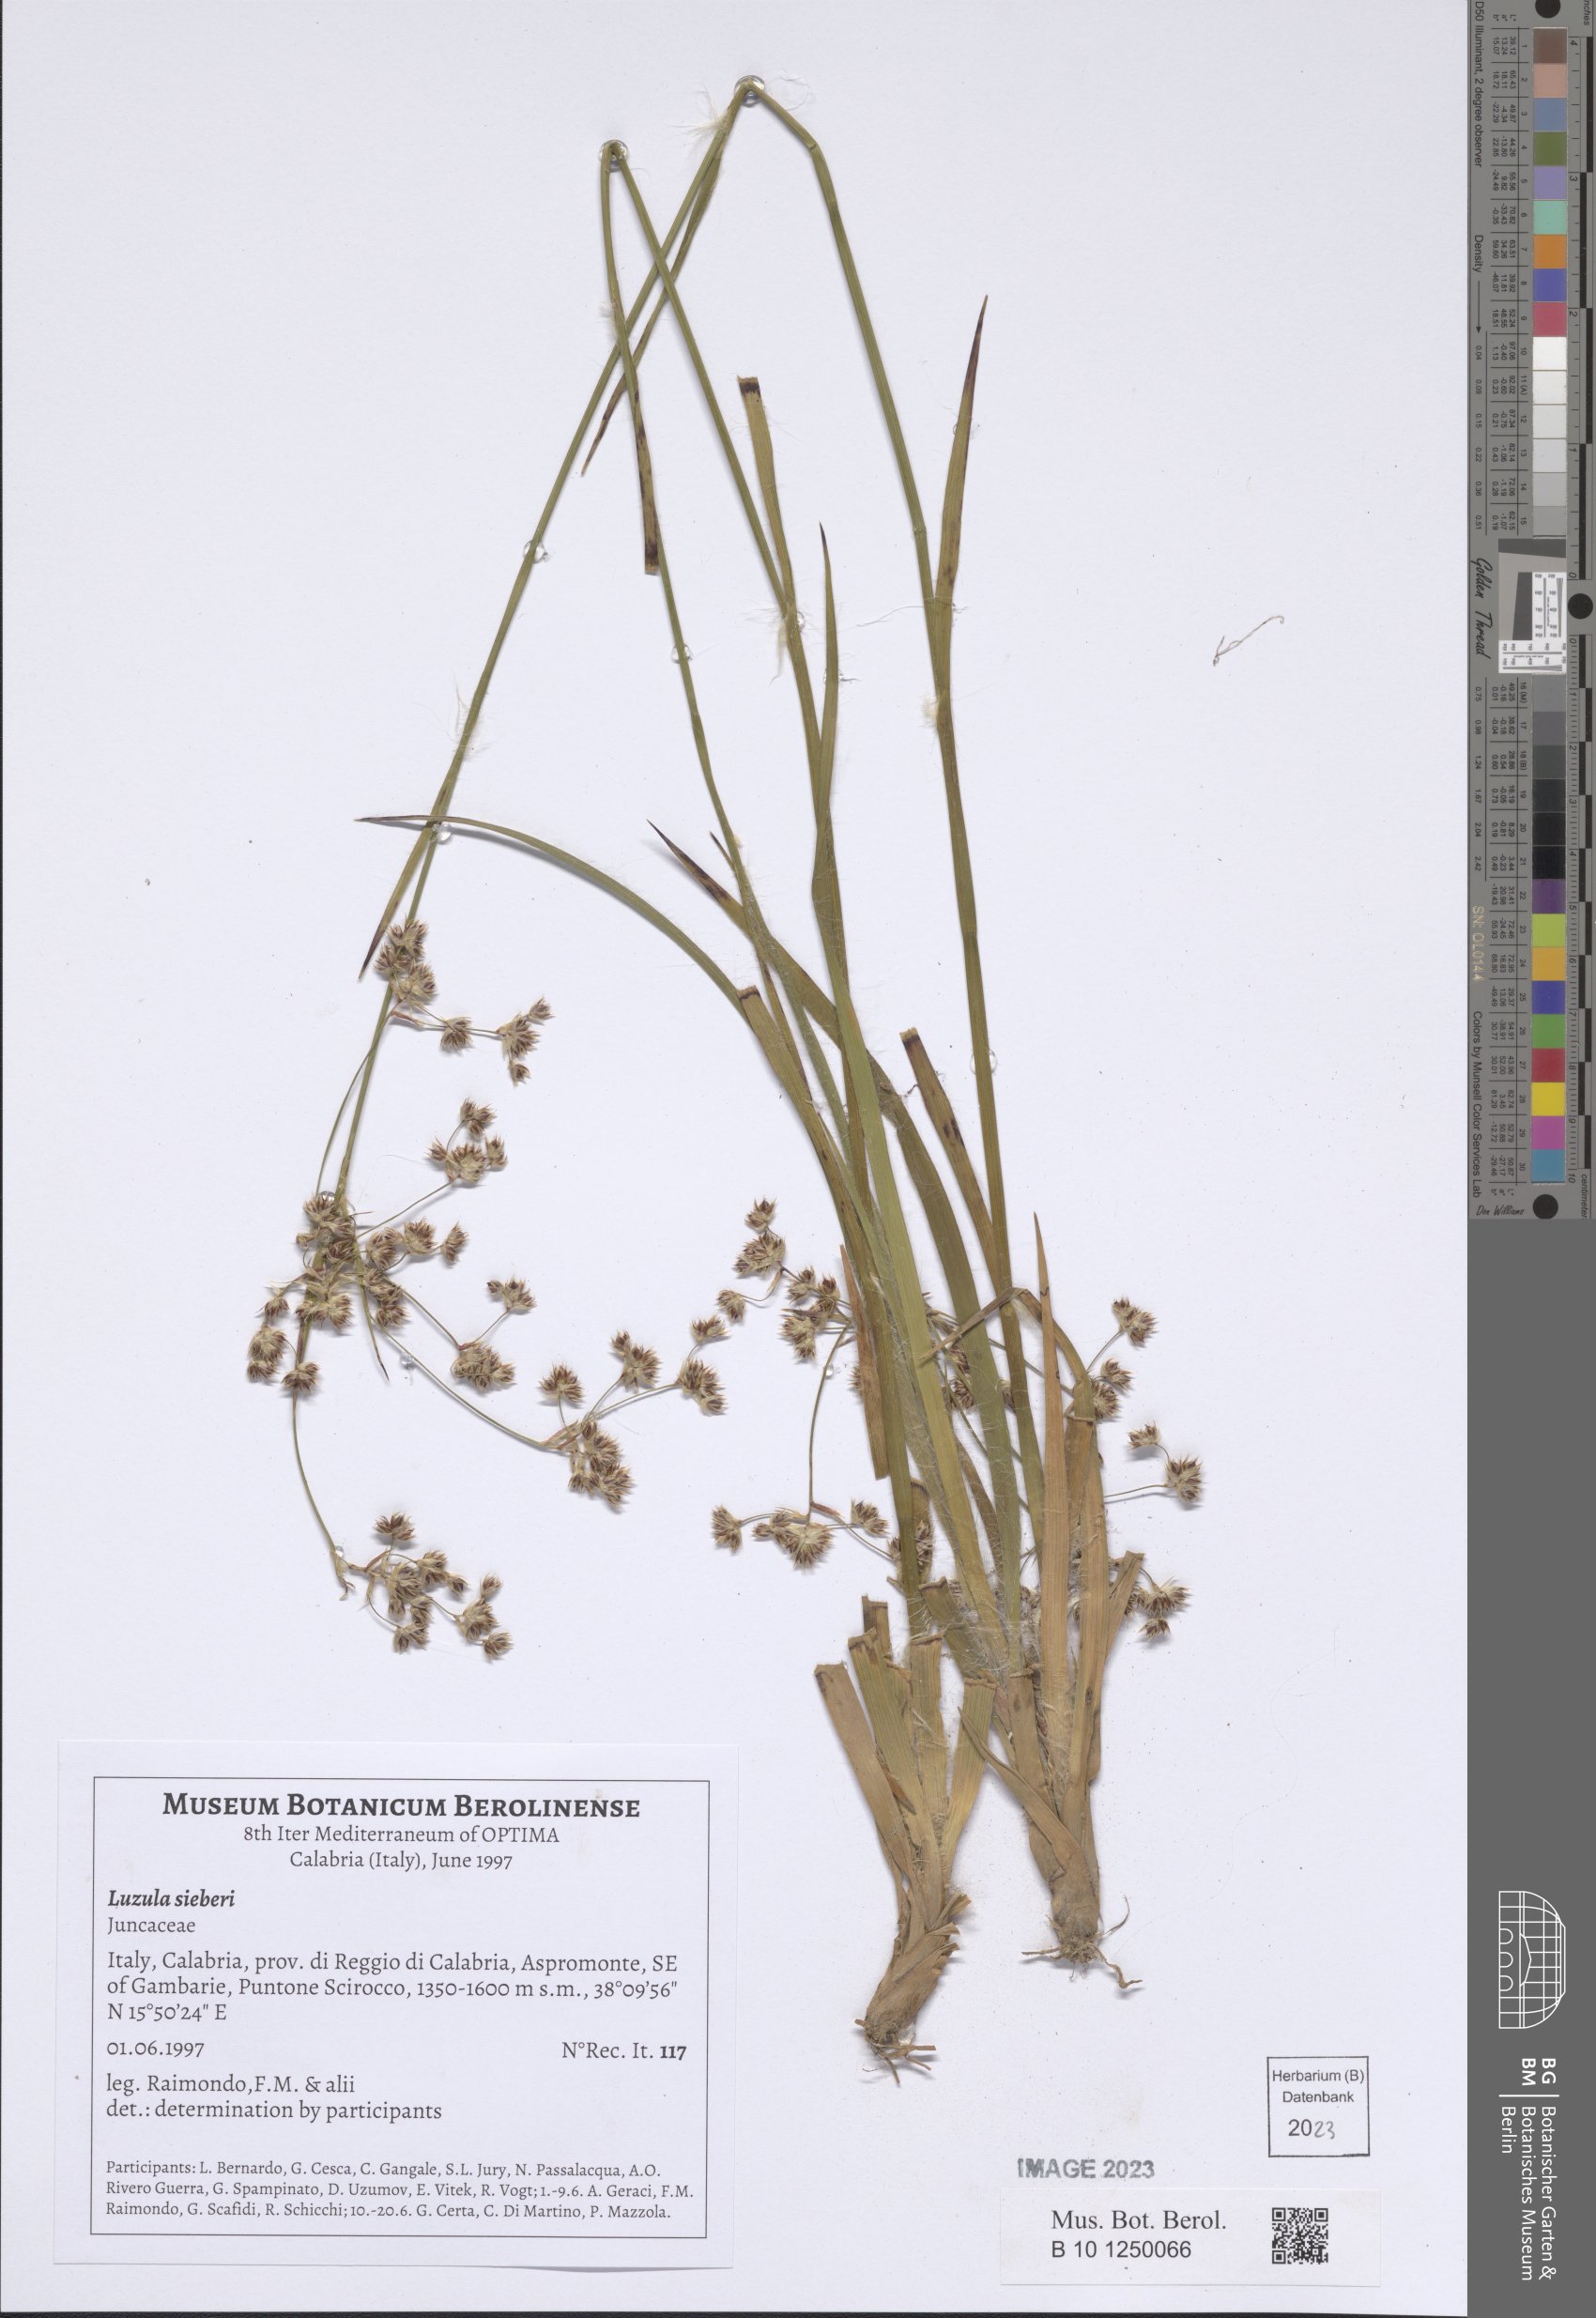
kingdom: Plantae
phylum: Tracheophyta
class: Liliopsida
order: Poales
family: Juncaceae
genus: Luzula
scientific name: Luzula sylvatica
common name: Great wood-rush
